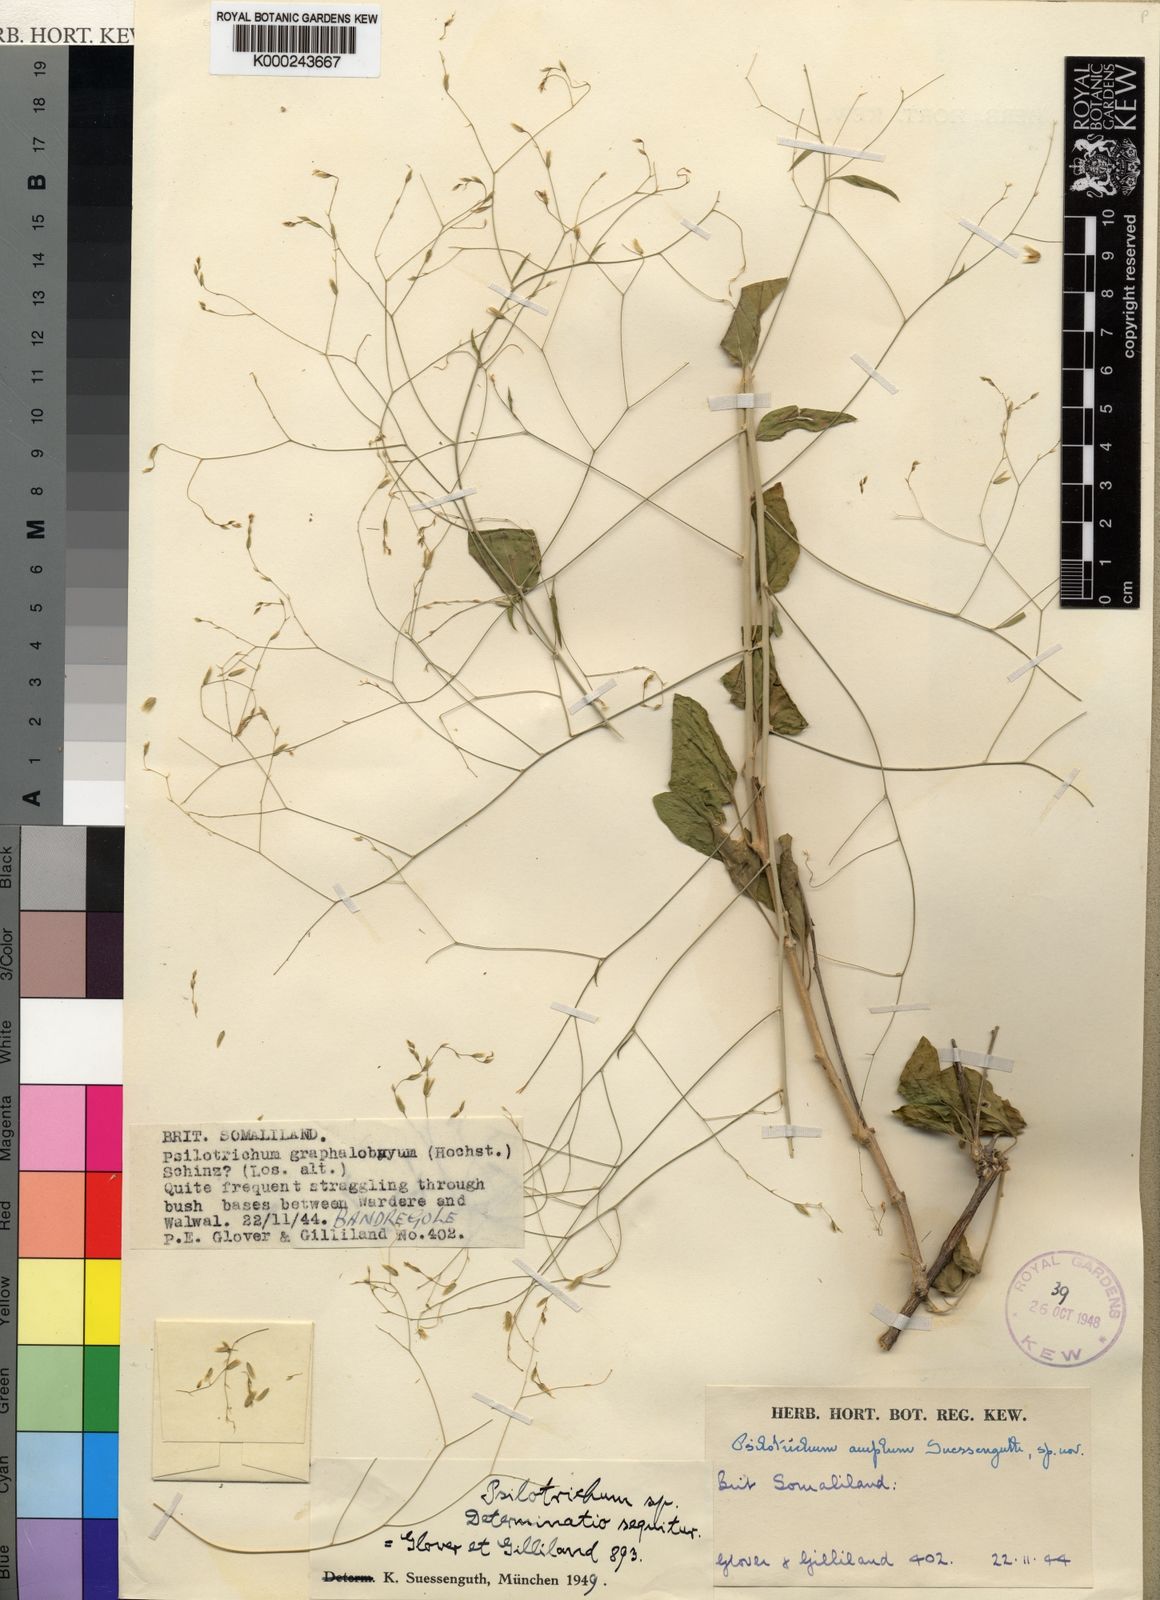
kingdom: Plantae
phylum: Tracheophyta
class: Magnoliopsida
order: Caryophyllales
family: Amaranthaceae
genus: Psilotrichum
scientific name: Psilotrichum amplum
